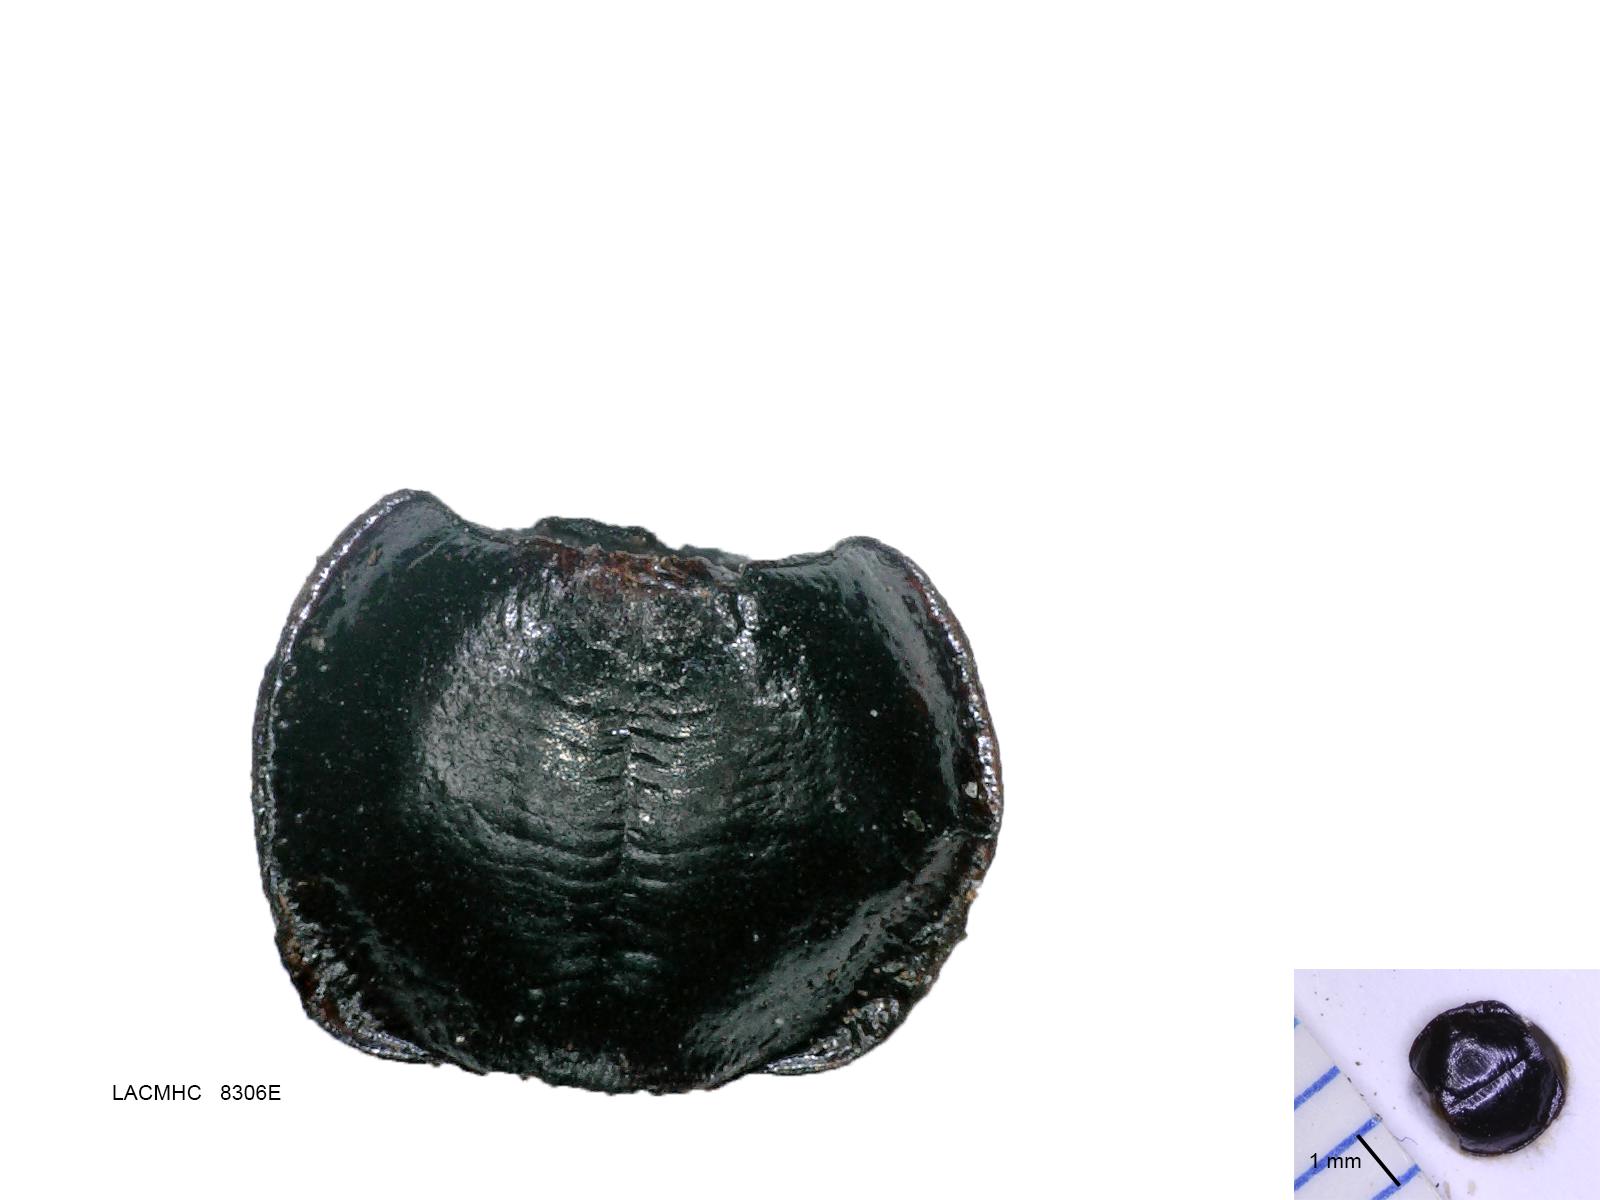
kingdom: Animalia
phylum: Arthropoda
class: Insecta
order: Coleoptera
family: Carabidae
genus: Tanystoma
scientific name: Tanystoma maculicolle
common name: Tule beetle
